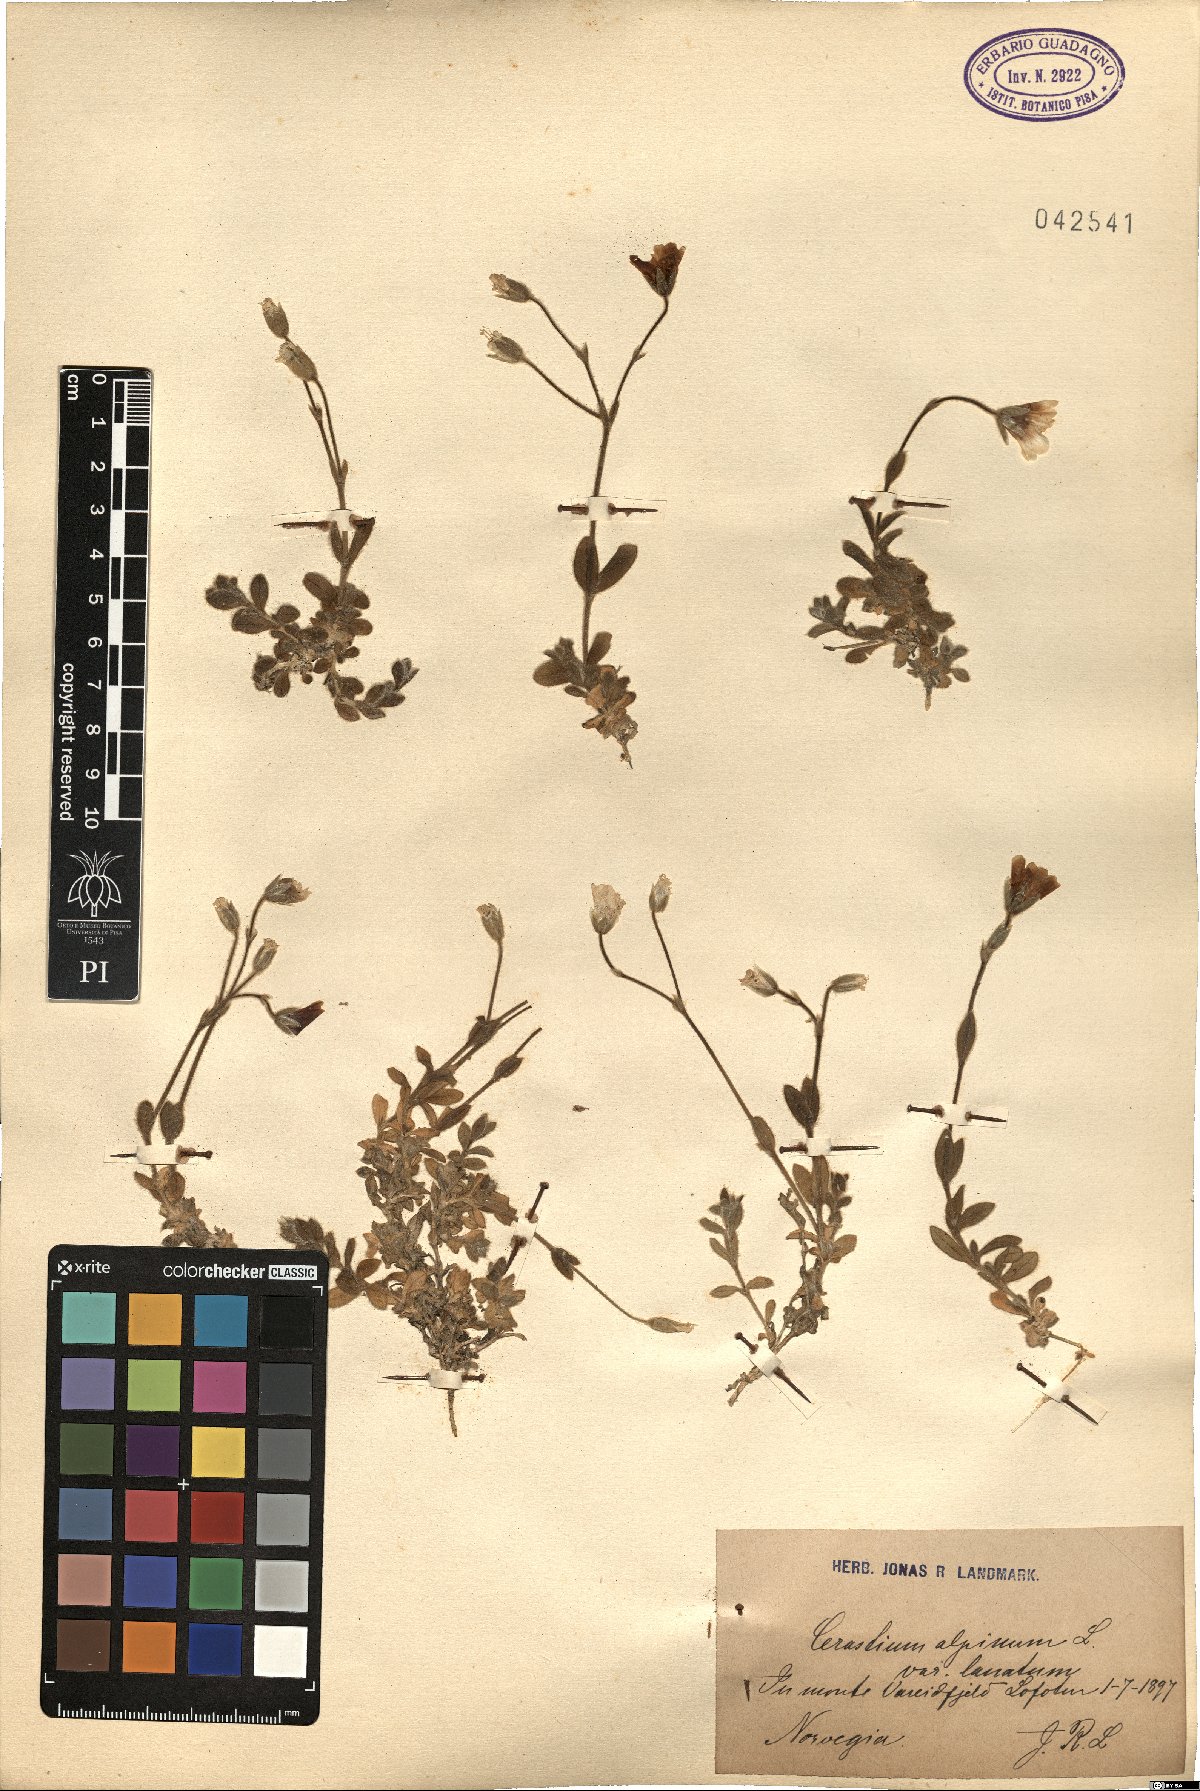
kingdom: Plantae
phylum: Tracheophyta
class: Magnoliopsida
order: Caryophyllales
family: Caryophyllaceae
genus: Cerastium
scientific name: Cerastium alpinum
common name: Alpine mouse-ear
